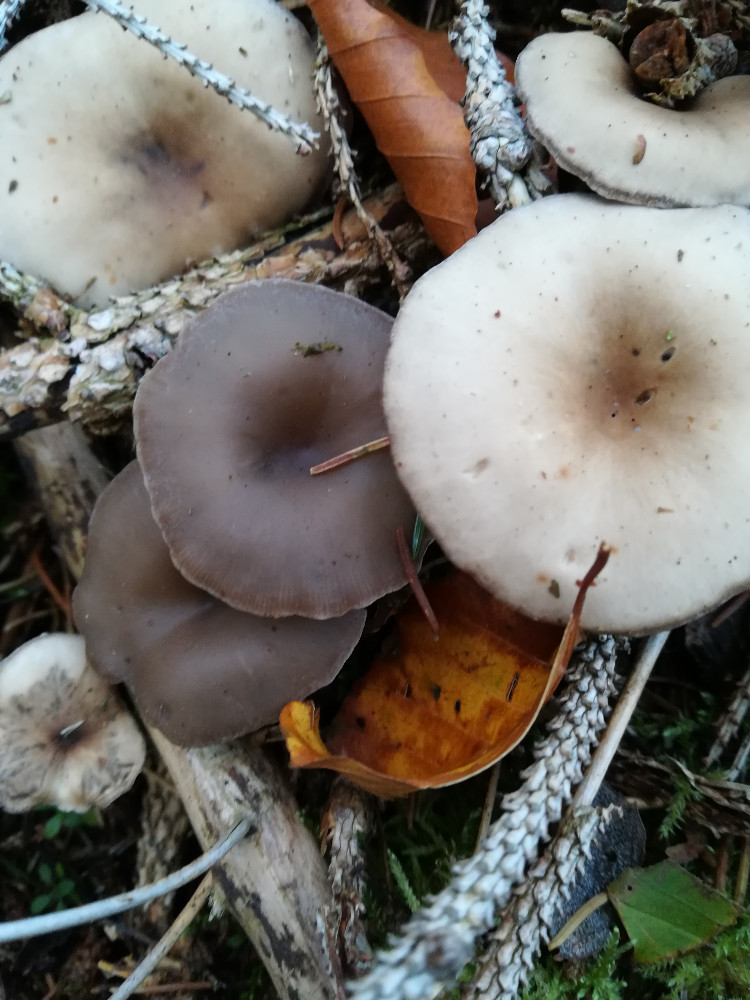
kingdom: Fungi
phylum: Basidiomycota
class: Agaricomycetes
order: Agaricales
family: Tricholomataceae
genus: Clitocybe
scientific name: Clitocybe metachroa
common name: grå tragthat
